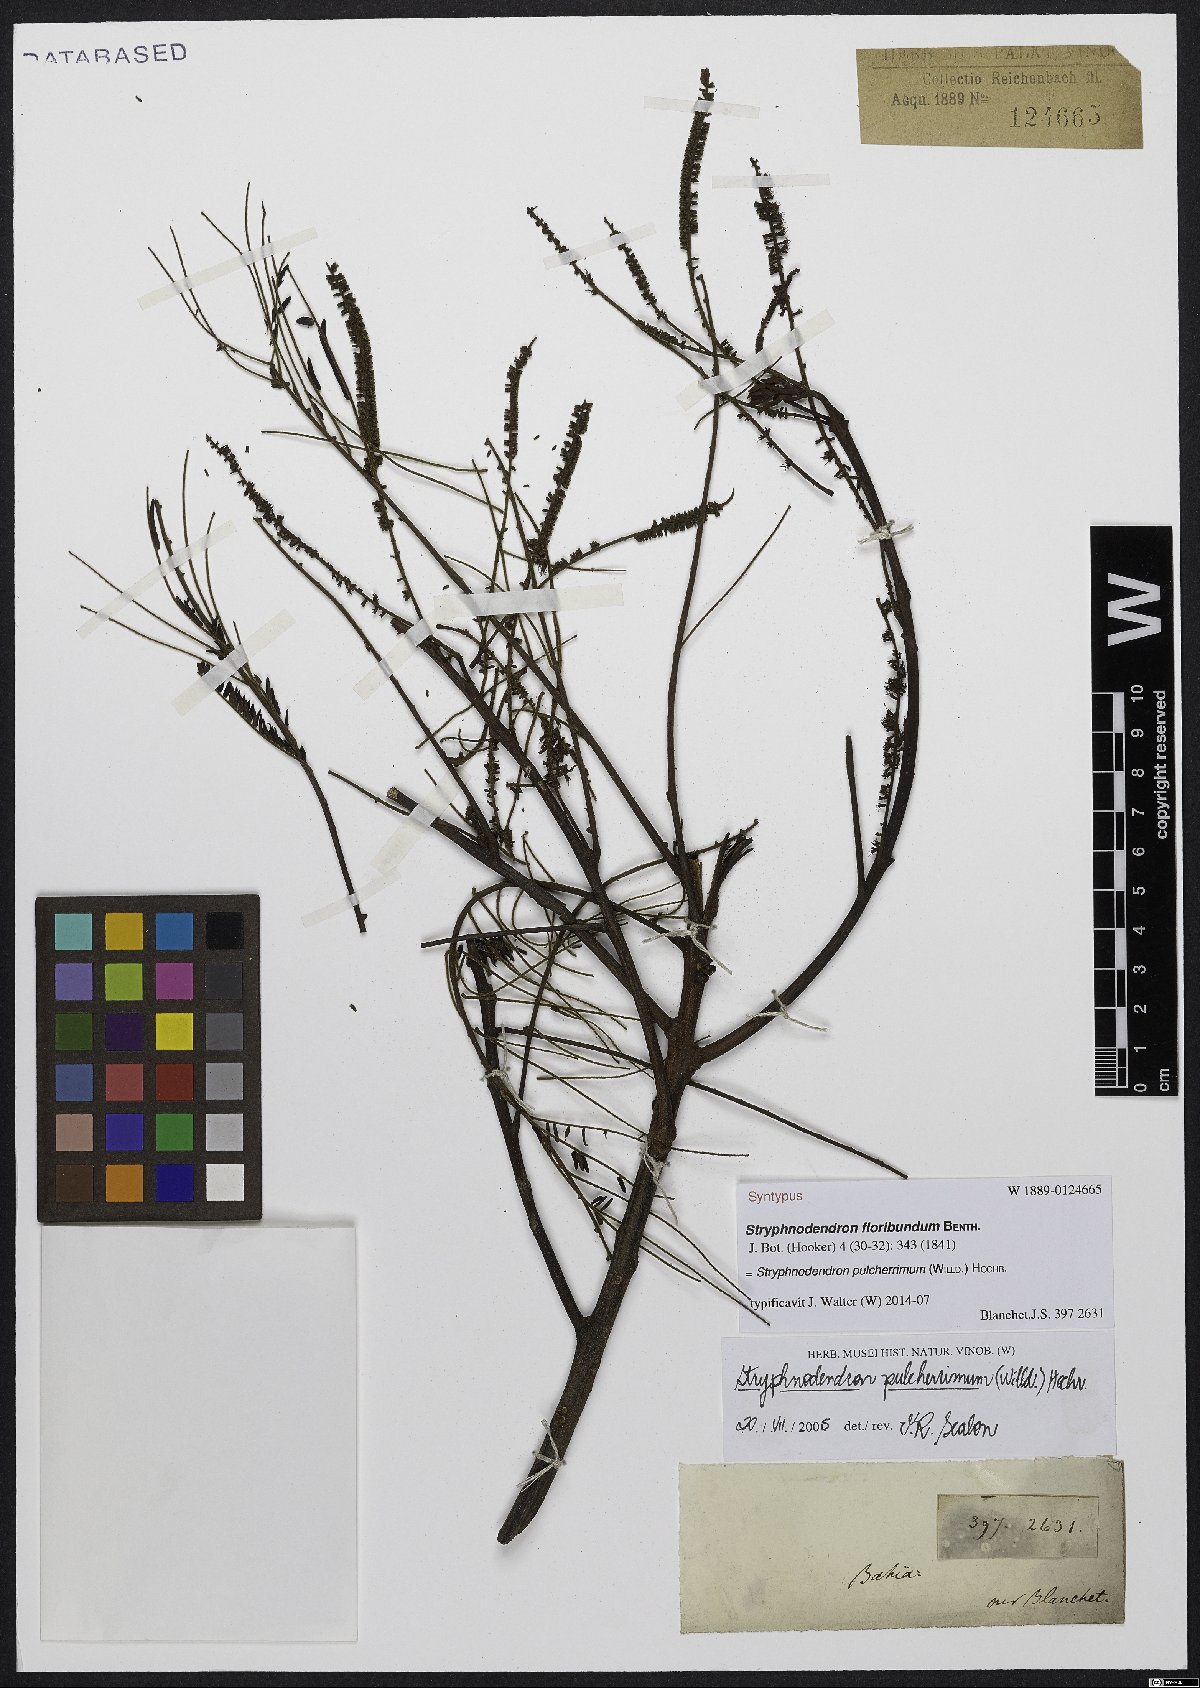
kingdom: Plantae
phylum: Tracheophyta
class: Magnoliopsida
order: Fabales
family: Fabaceae
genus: Stryphnodendron
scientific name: Stryphnodendron pulcherrimum
